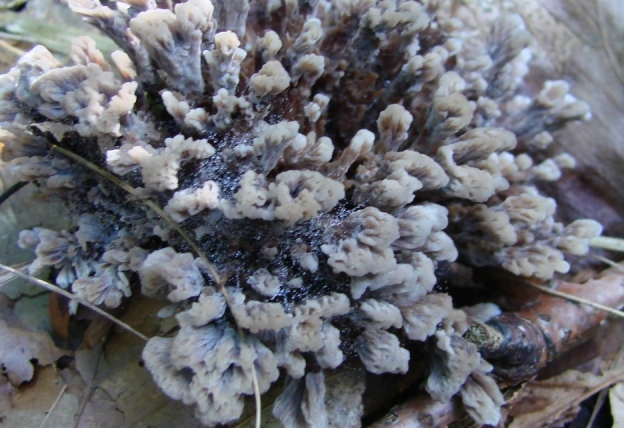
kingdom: Fungi
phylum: Basidiomycota
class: Agaricomycetes
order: Thelephorales
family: Thelephoraceae
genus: Thelephora
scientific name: Thelephora anthocephala
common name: busk-frynsesvamp
